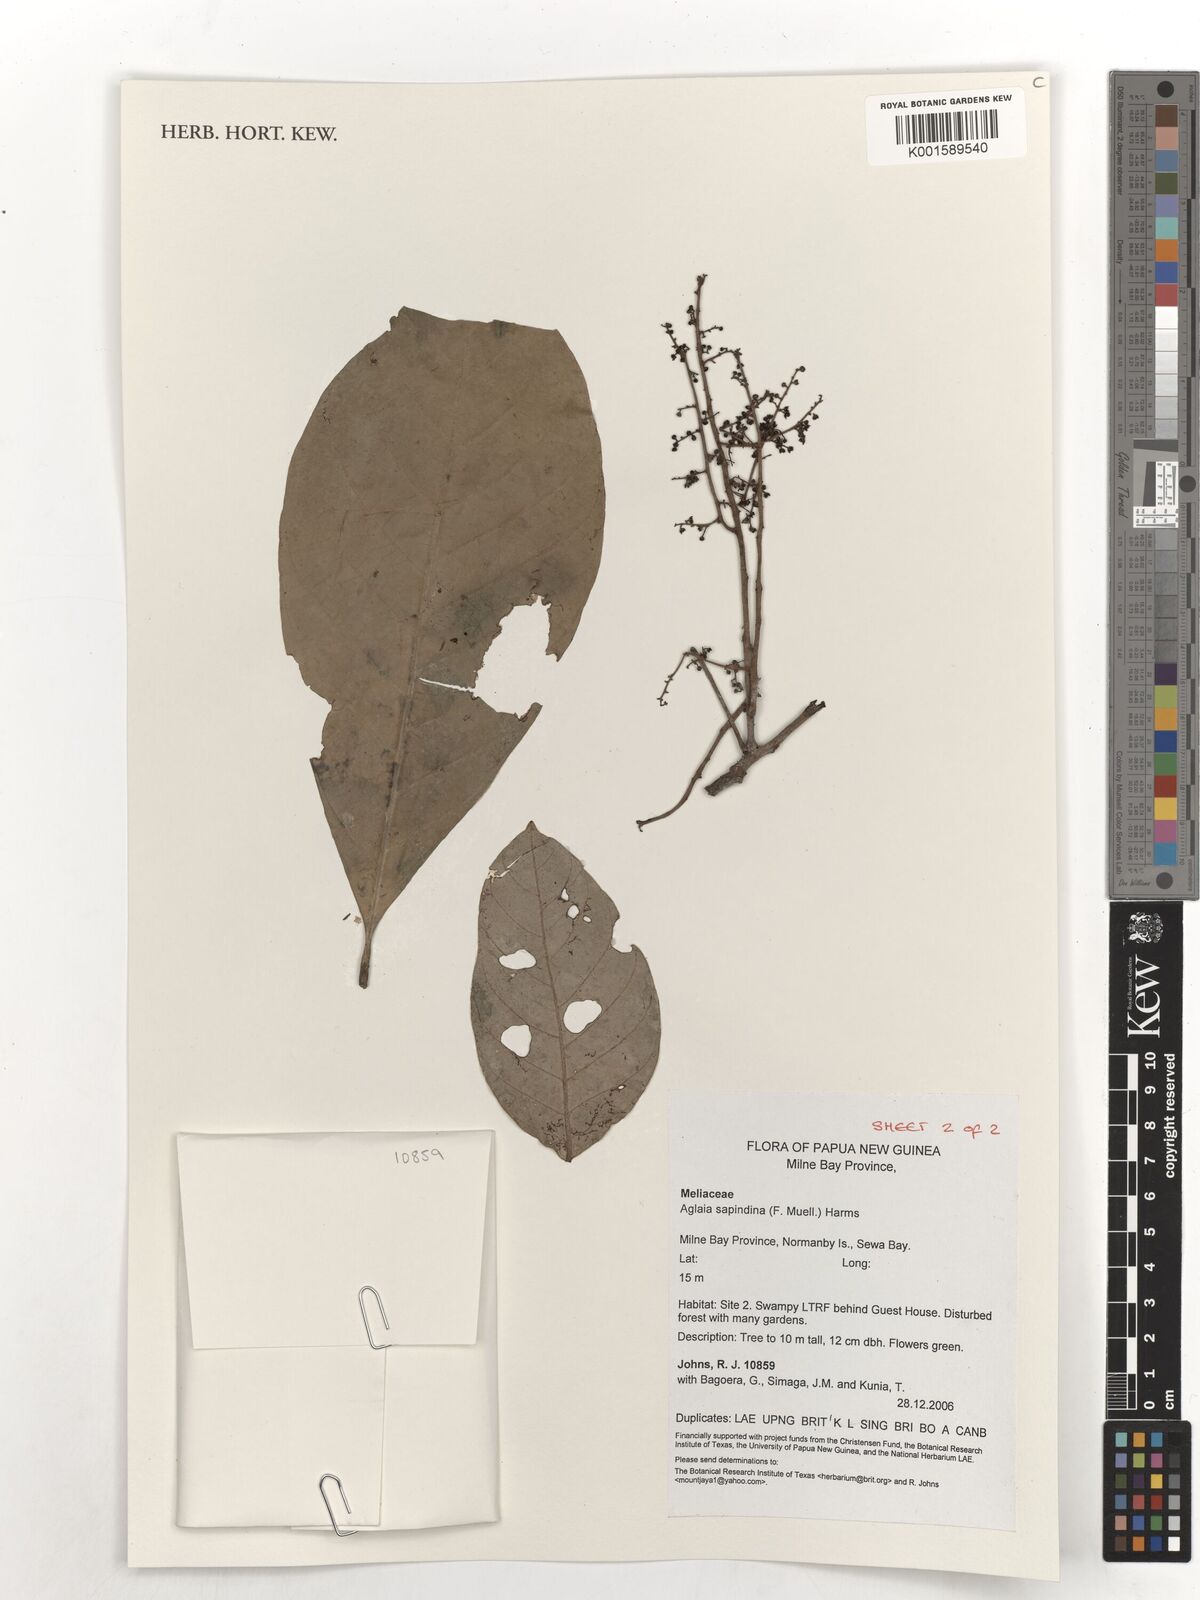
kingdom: Plantae
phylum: Tracheophyta
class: Magnoliopsida
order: Sapindales
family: Meliaceae
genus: Aglaia
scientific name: Aglaia sapindina
